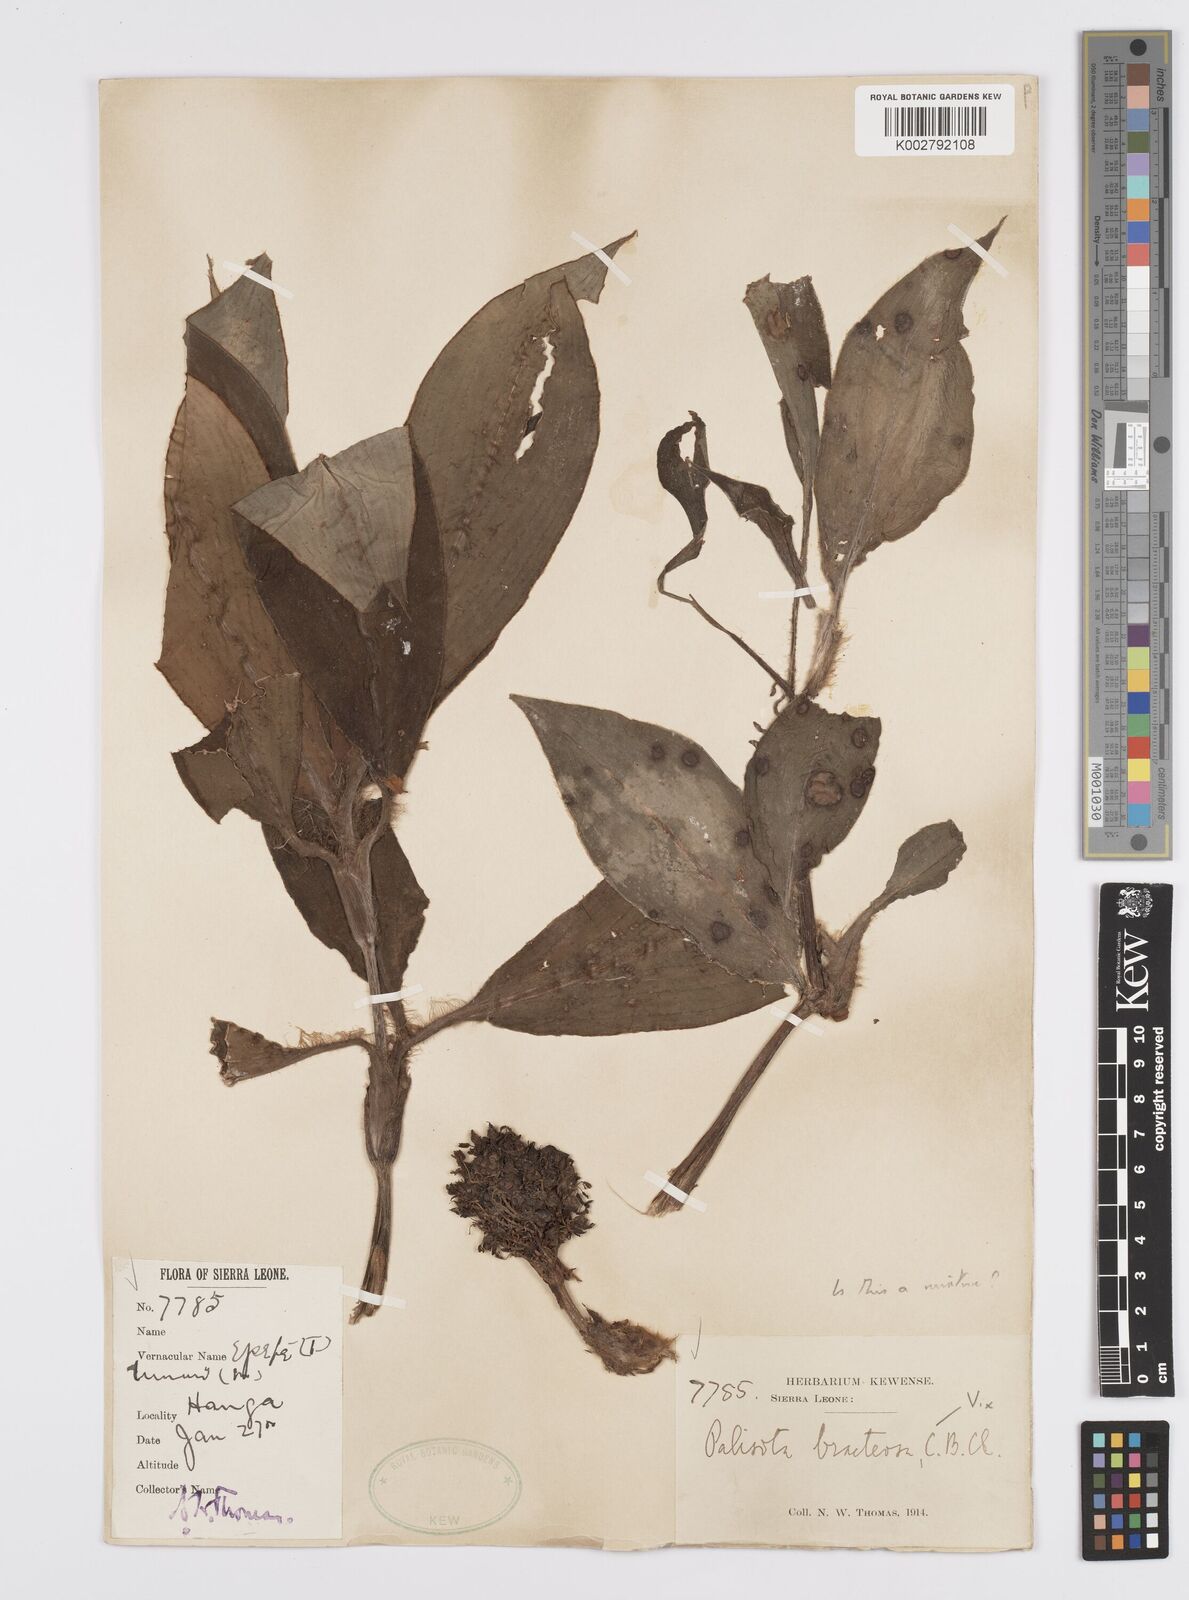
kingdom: Plantae
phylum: Tracheophyta
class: Liliopsida
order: Commelinales
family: Commelinaceae
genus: Palisota
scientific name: Palisota bracteosa
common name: Palisota
